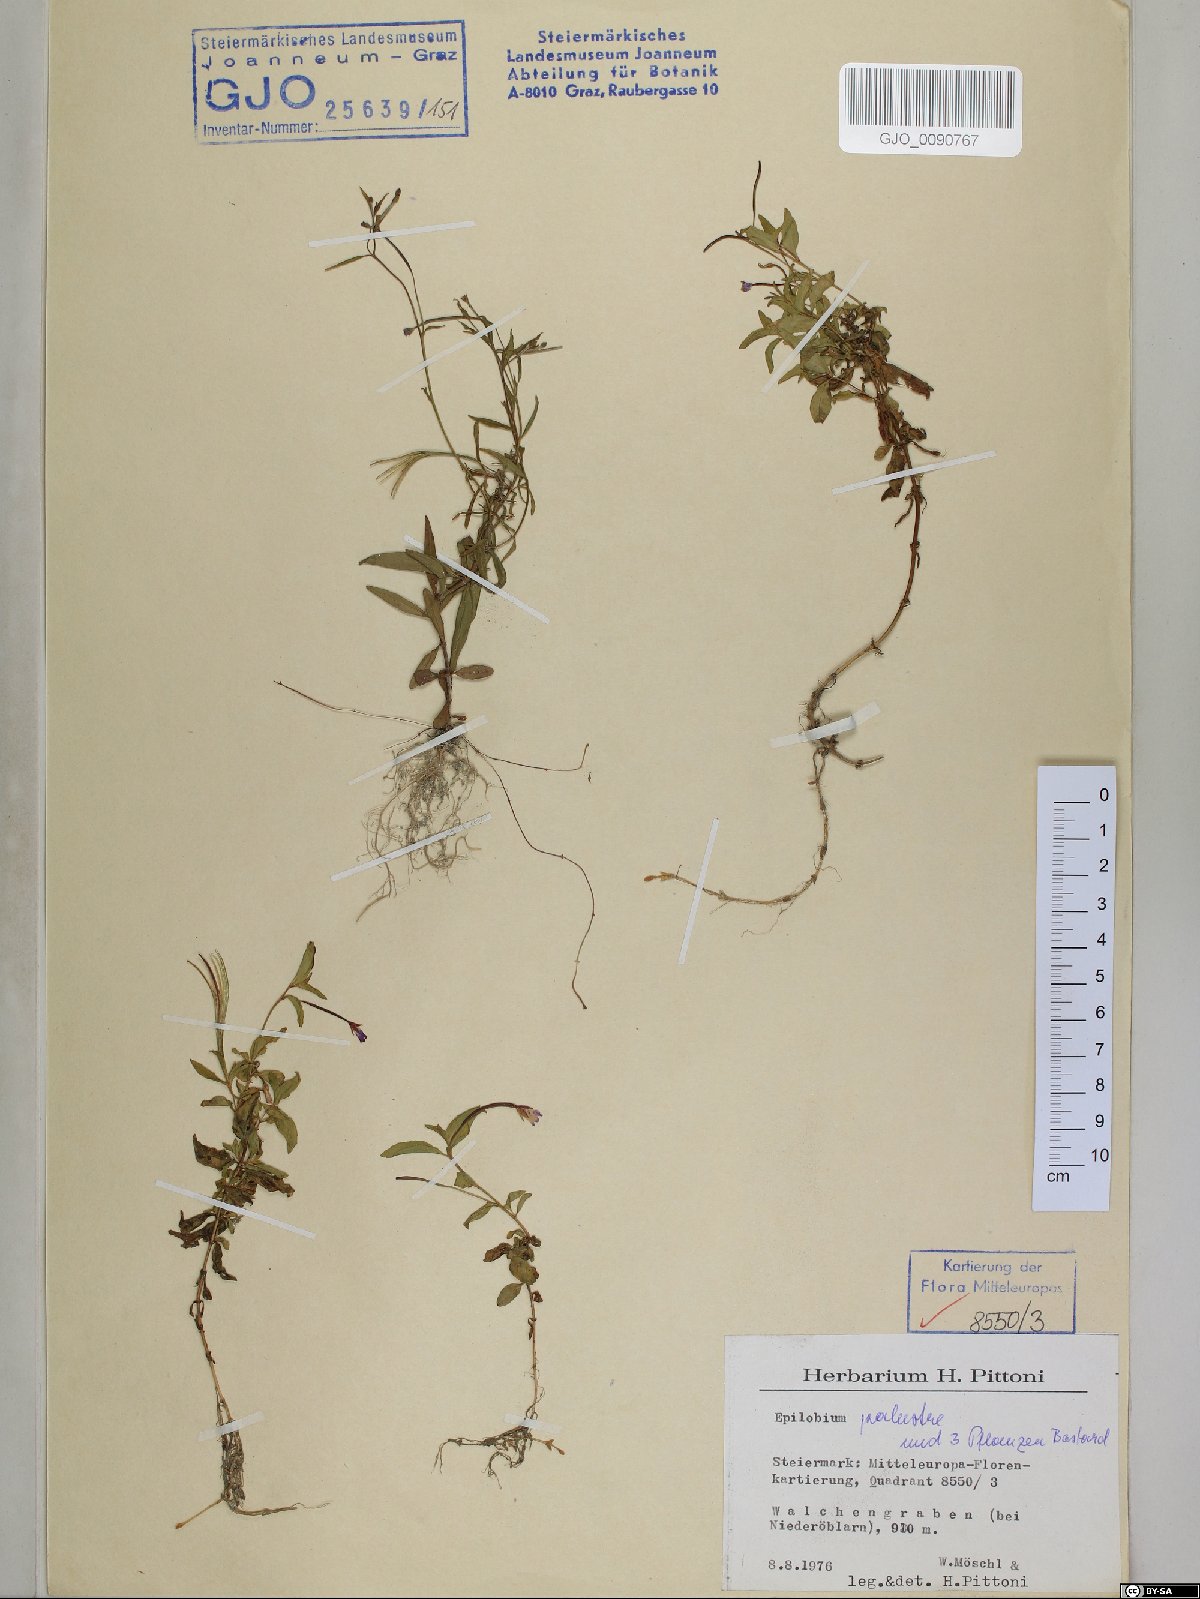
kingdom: Plantae
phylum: Tracheophyta
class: Magnoliopsida
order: Myrtales
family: Onagraceae
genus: Epilobium
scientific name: Epilobium palustre
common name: Marsh willowherb
